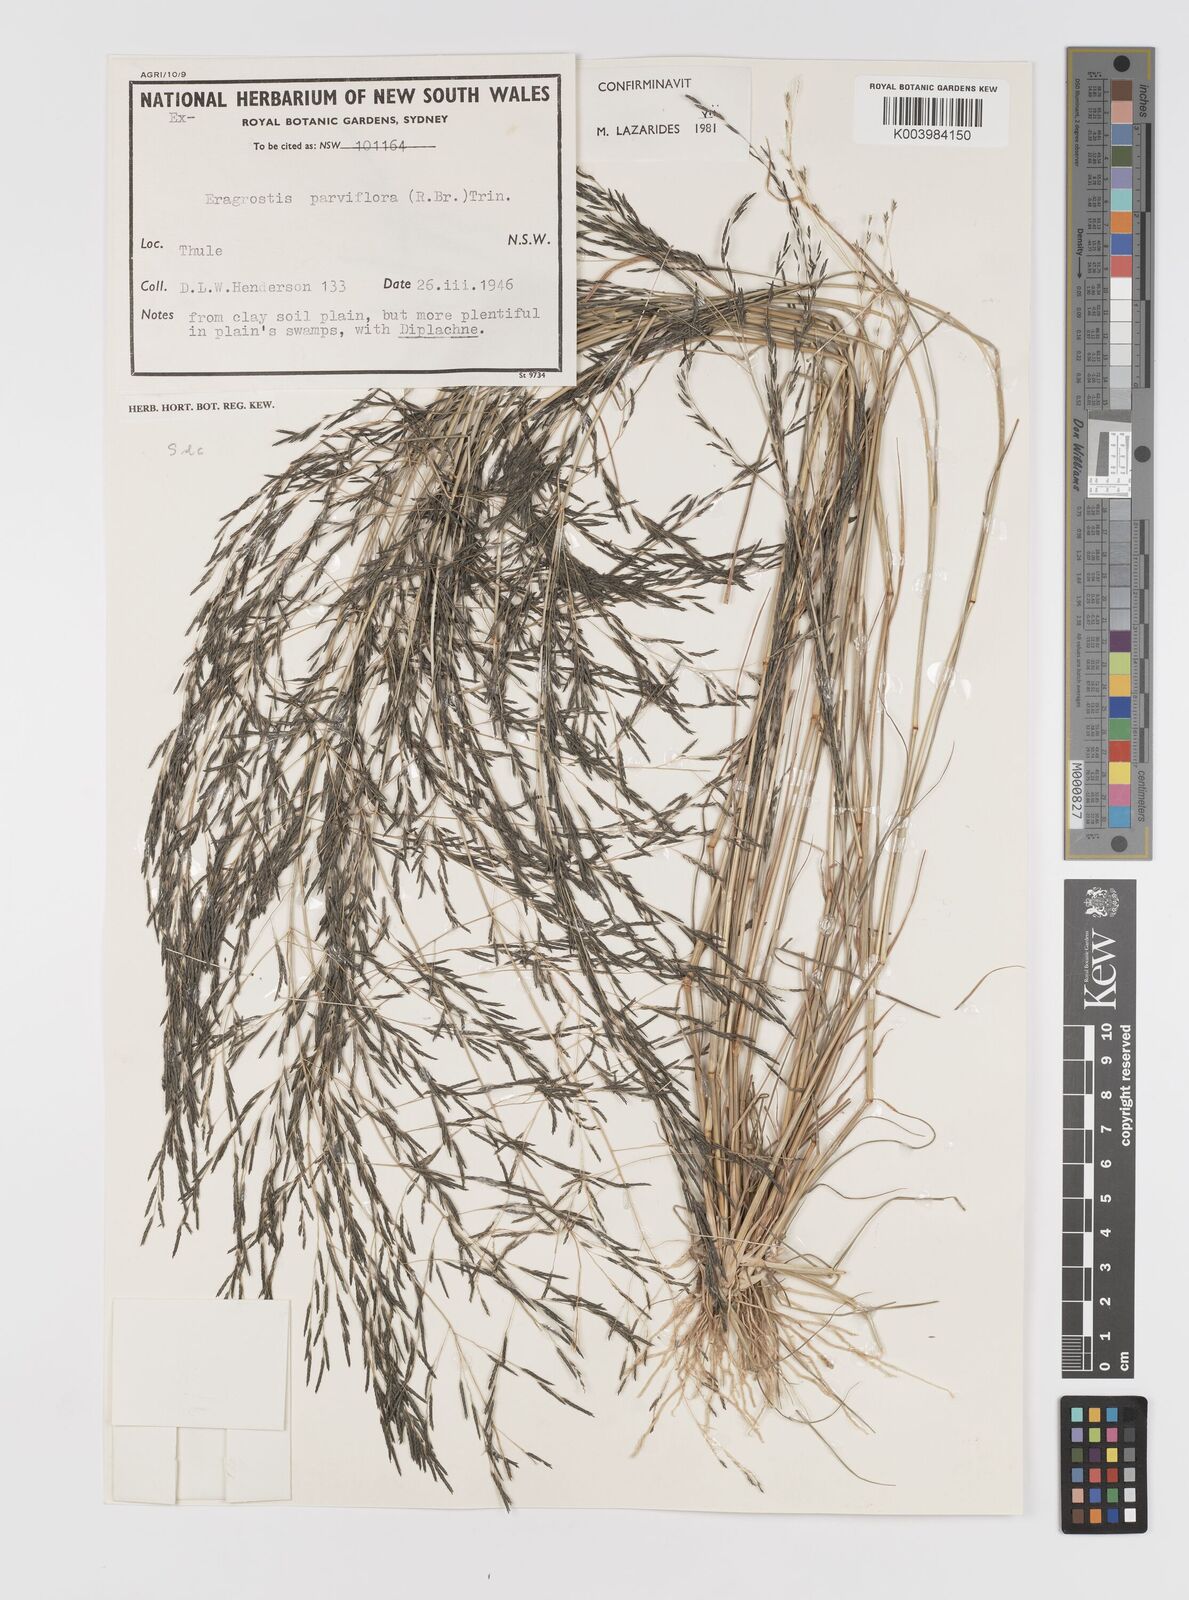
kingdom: Plantae
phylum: Tracheophyta
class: Liliopsida
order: Poales
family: Poaceae
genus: Eragrostis
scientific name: Eragrostis parviflora
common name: Weeping love-grass
